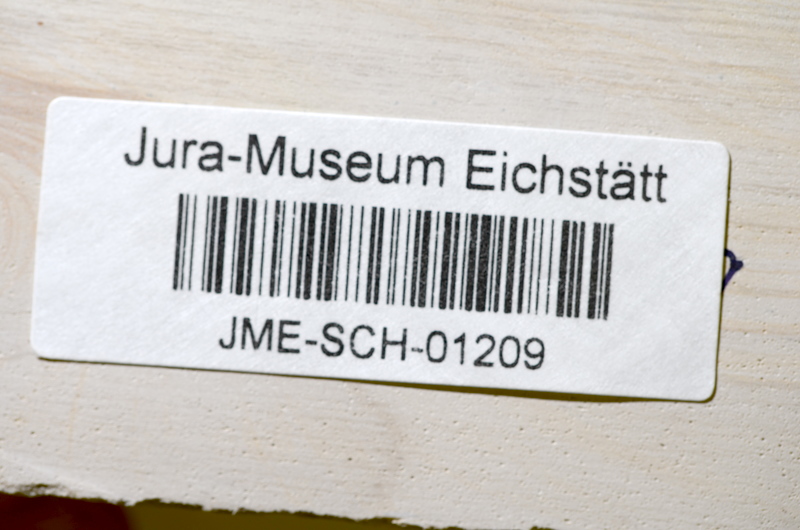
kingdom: Animalia
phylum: Chordata
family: Ascalaboidae
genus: Tharsis
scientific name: Tharsis dubius
